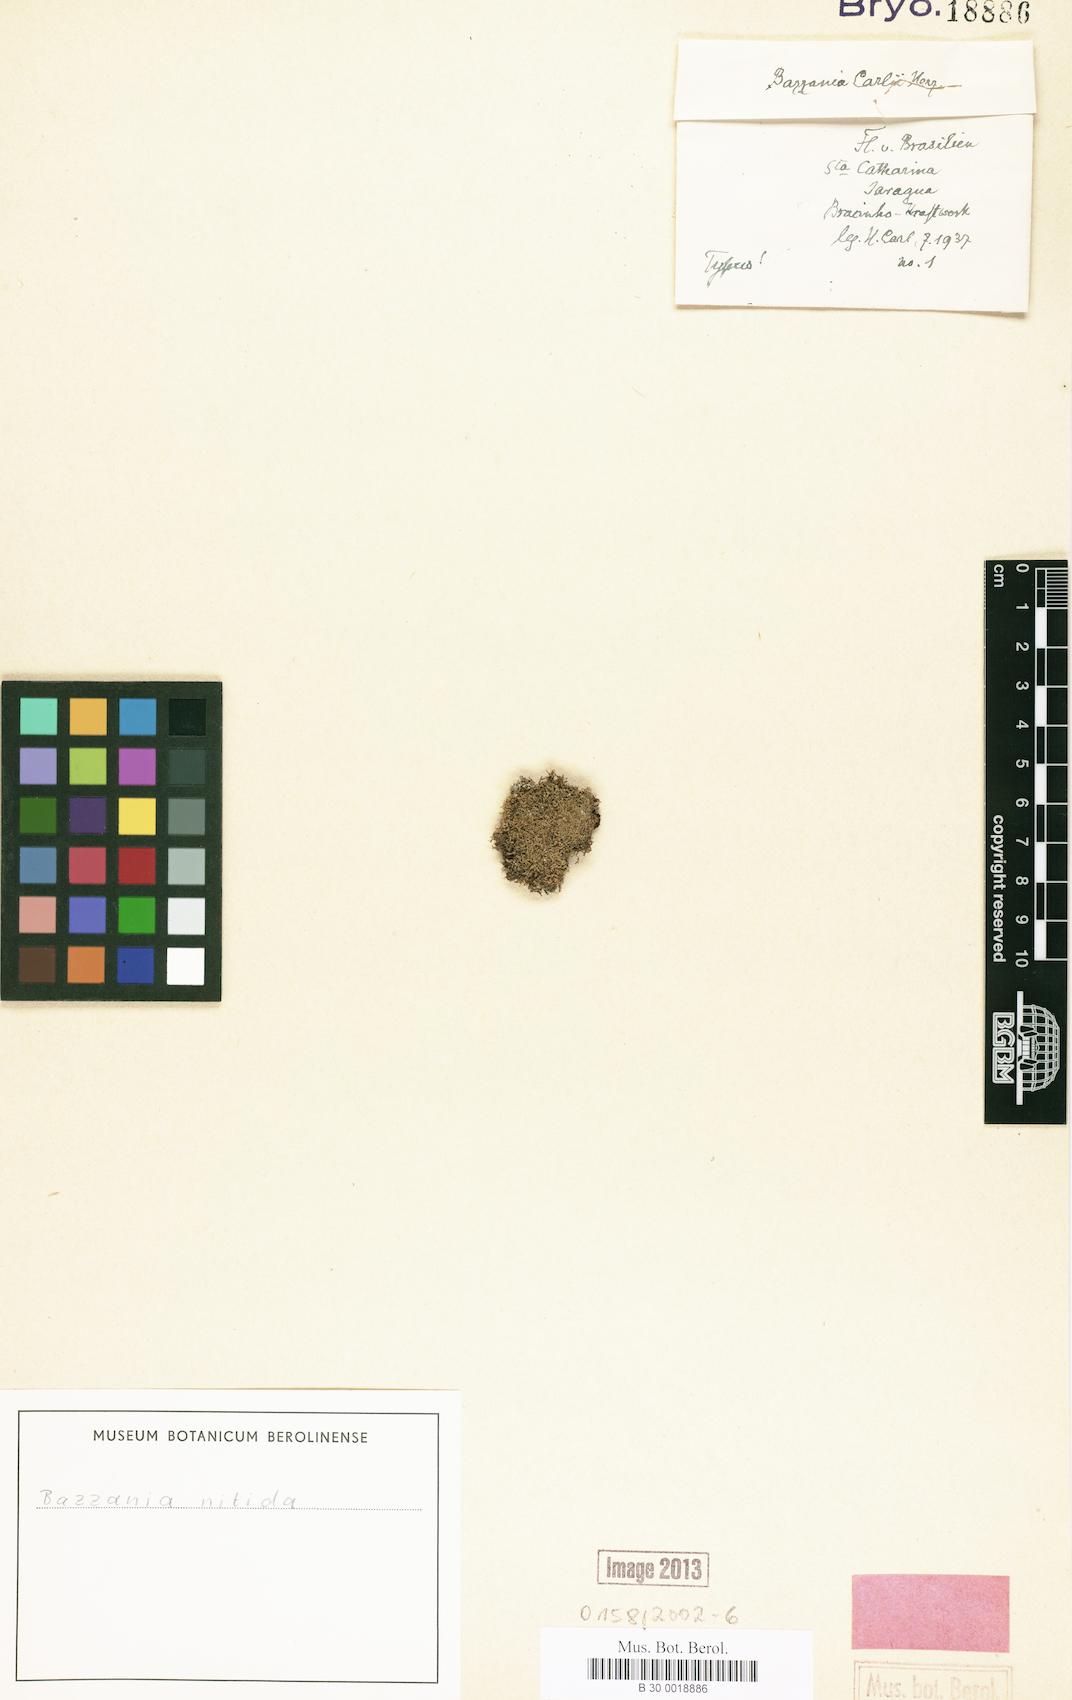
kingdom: Plantae
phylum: Marchantiophyta
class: Jungermanniopsida
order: Jungermanniales
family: Lepidoziaceae
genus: Bazzania
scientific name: Bazzania nitida
